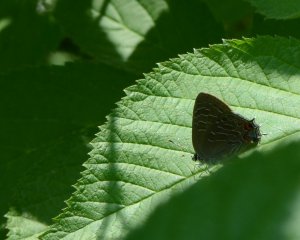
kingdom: Animalia
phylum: Arthropoda
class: Insecta
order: Lepidoptera
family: Lycaenidae
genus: Satyrium
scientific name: Satyrium liparops
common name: Striped Hairstreak
